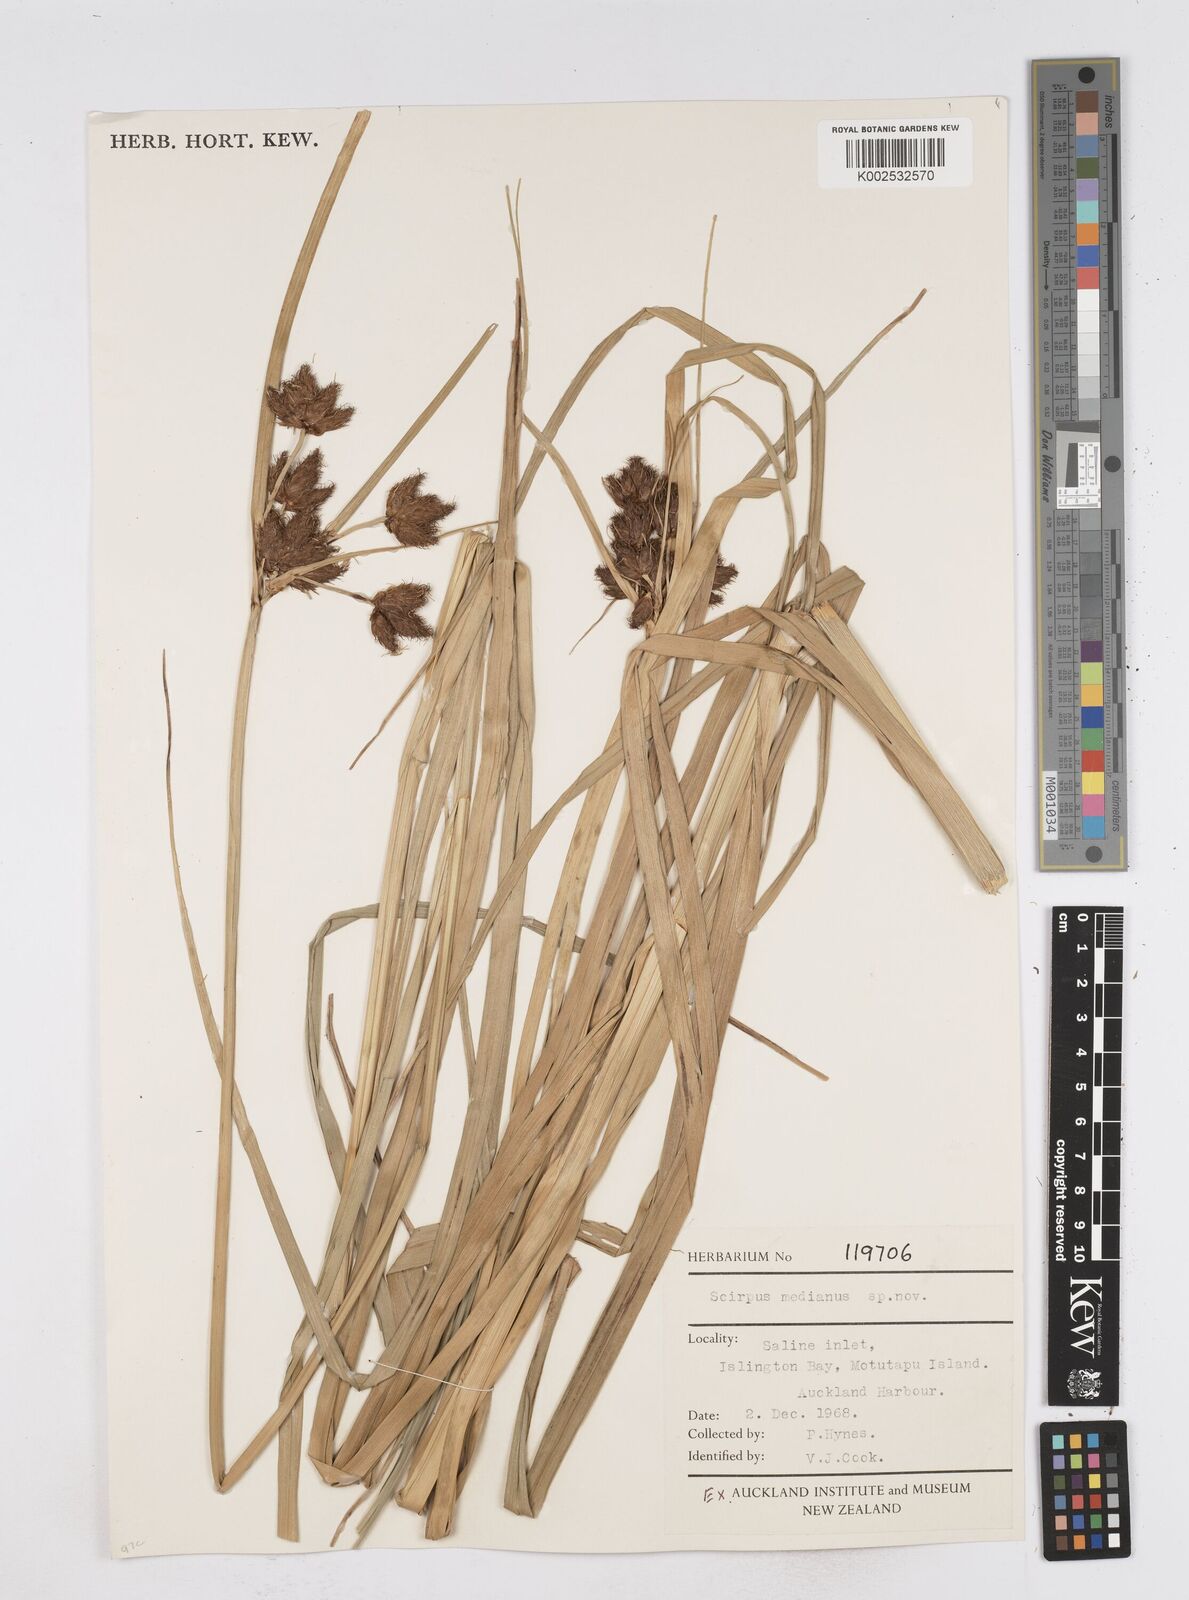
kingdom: Plantae
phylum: Tracheophyta
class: Liliopsida
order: Poales
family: Cyperaceae
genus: Bolboschoenus
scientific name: Bolboschoenus medianus
